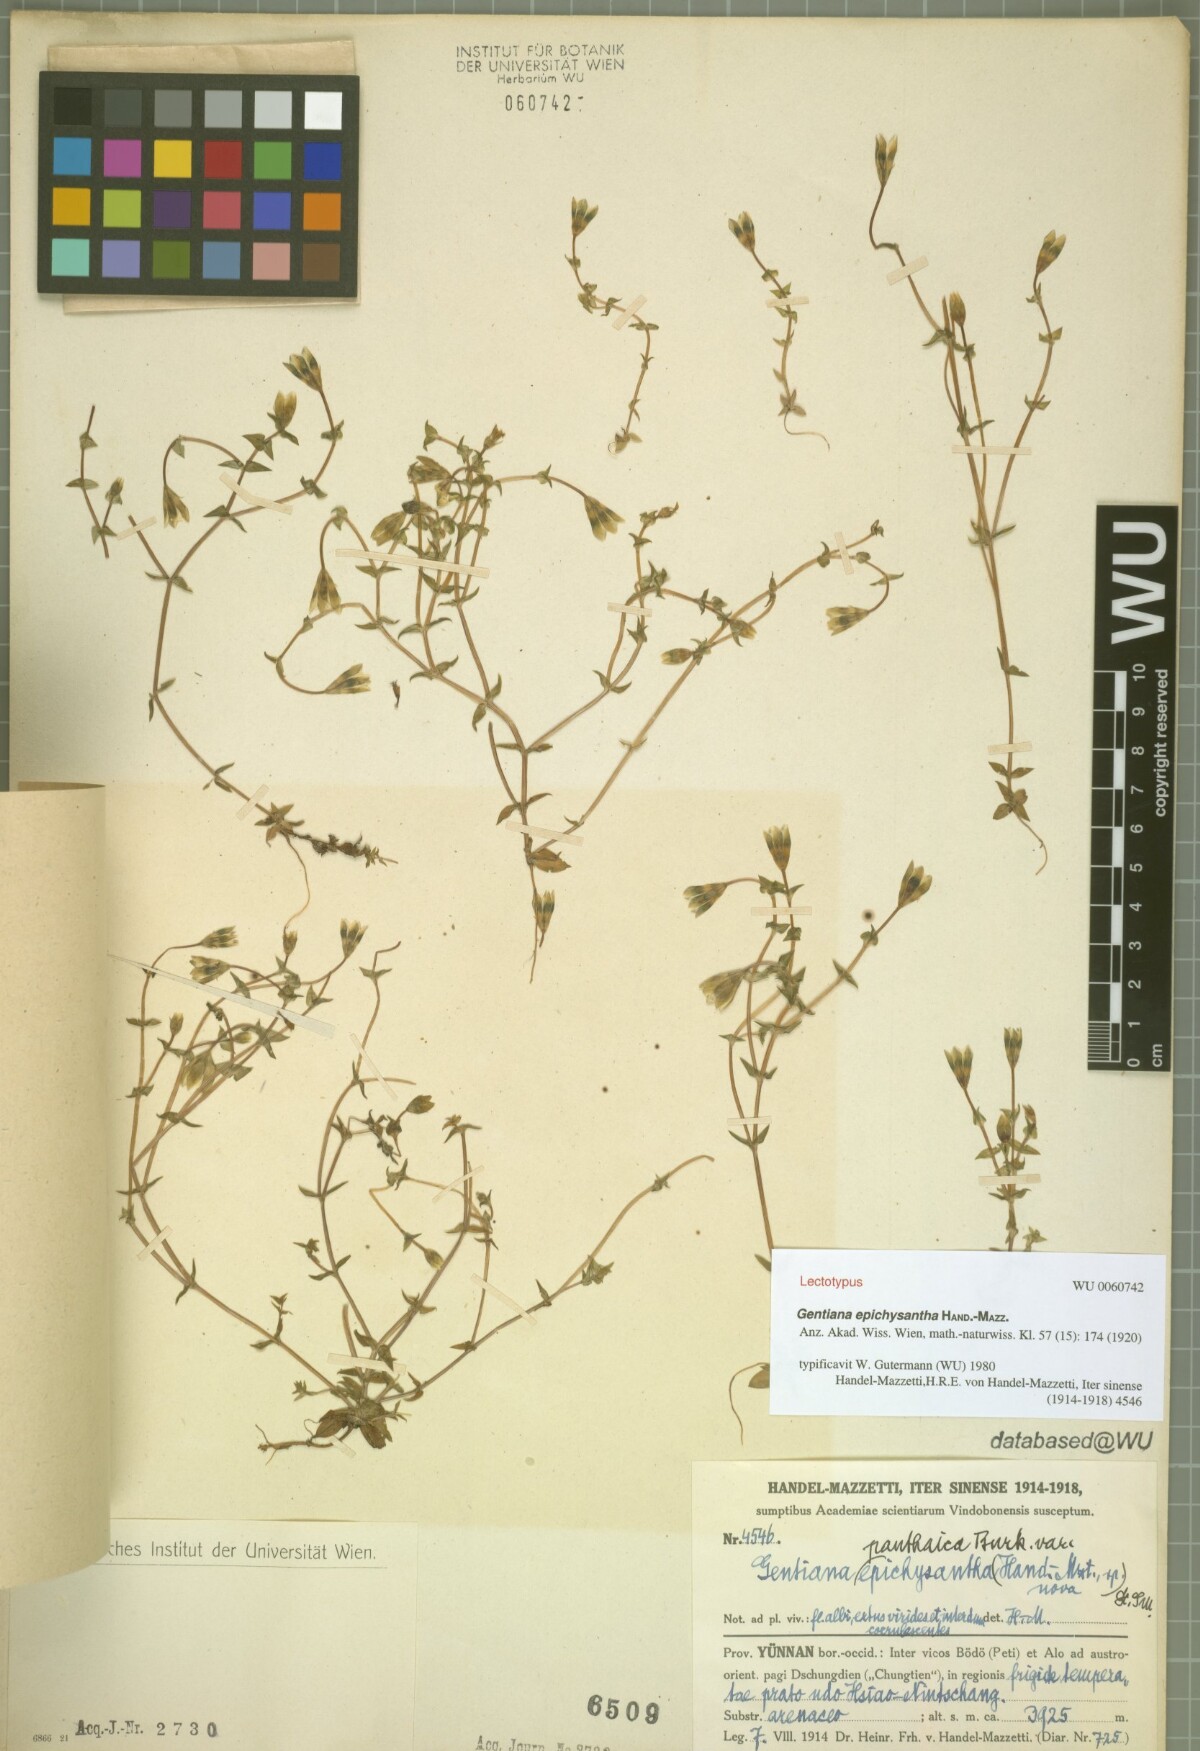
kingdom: Plantae
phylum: Tracheophyta
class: Magnoliopsida
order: Gentianales
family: Gentianaceae
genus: Gentiana
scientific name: Gentiana panthaica
